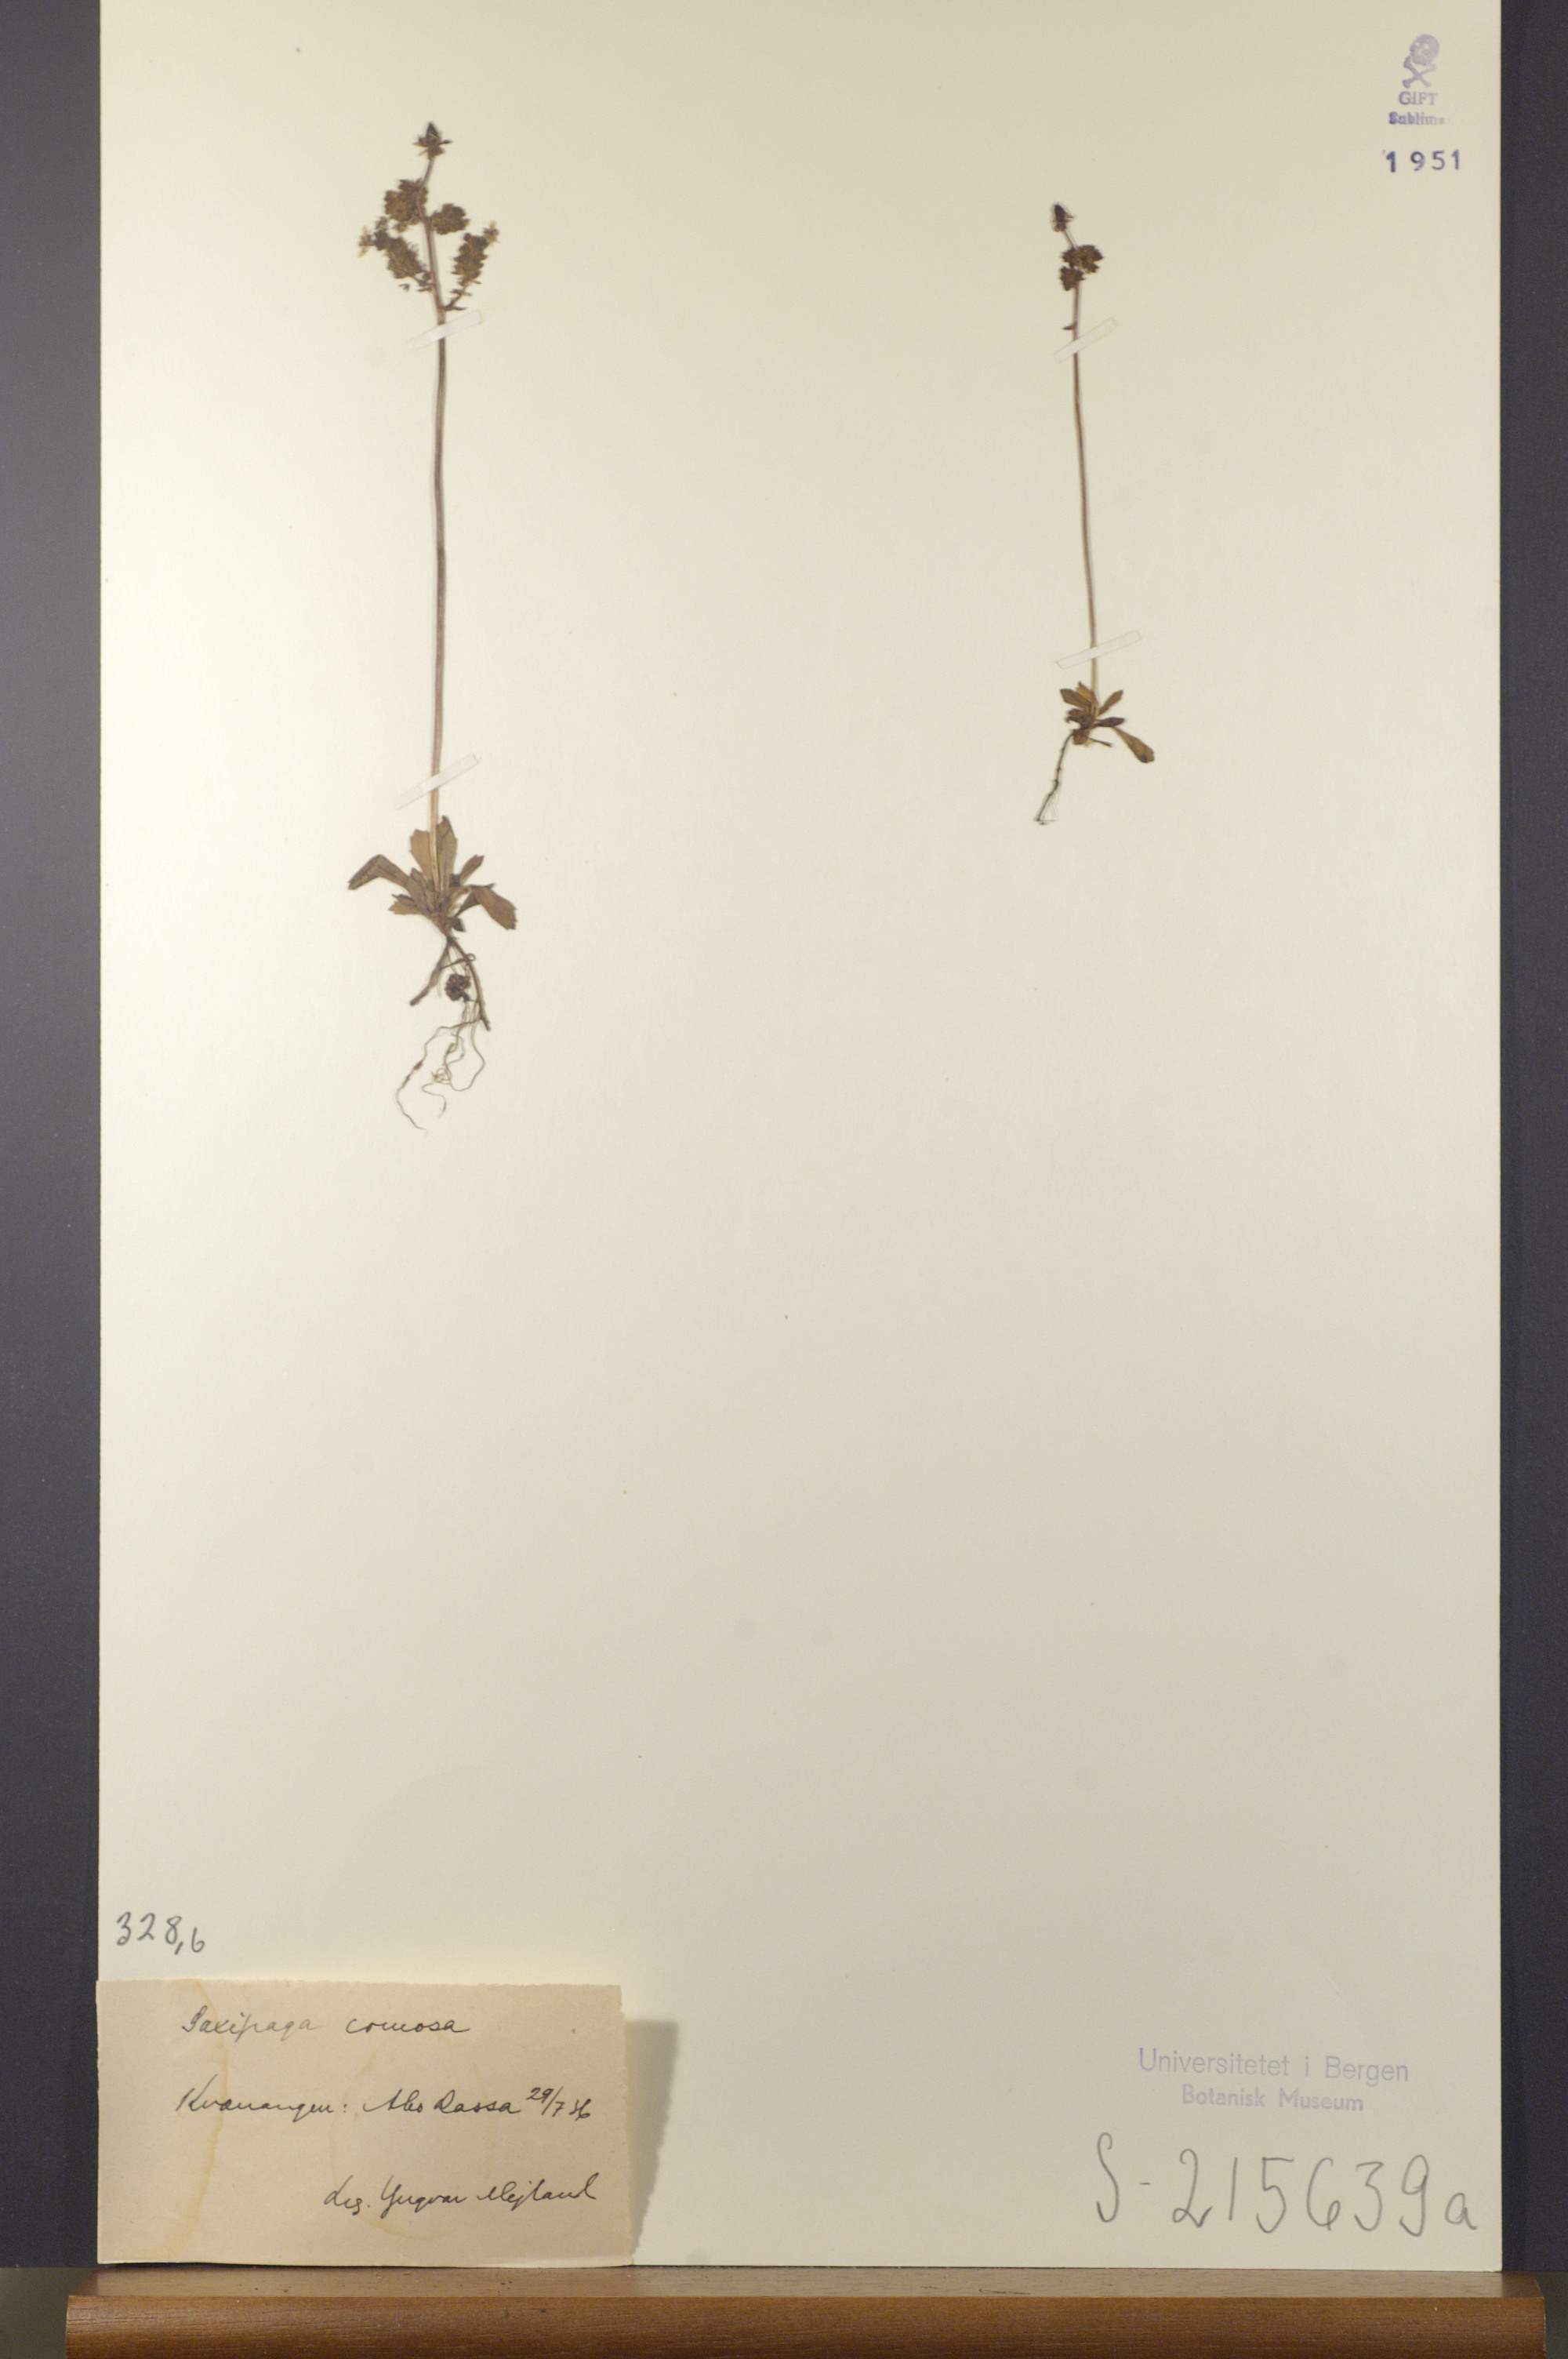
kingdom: Plantae
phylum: Tracheophyta
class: Magnoliopsida
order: Saxifragales
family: Saxifragaceae
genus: Micranthes
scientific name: Micranthes foliolosa
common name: Leafystem saxifrage
